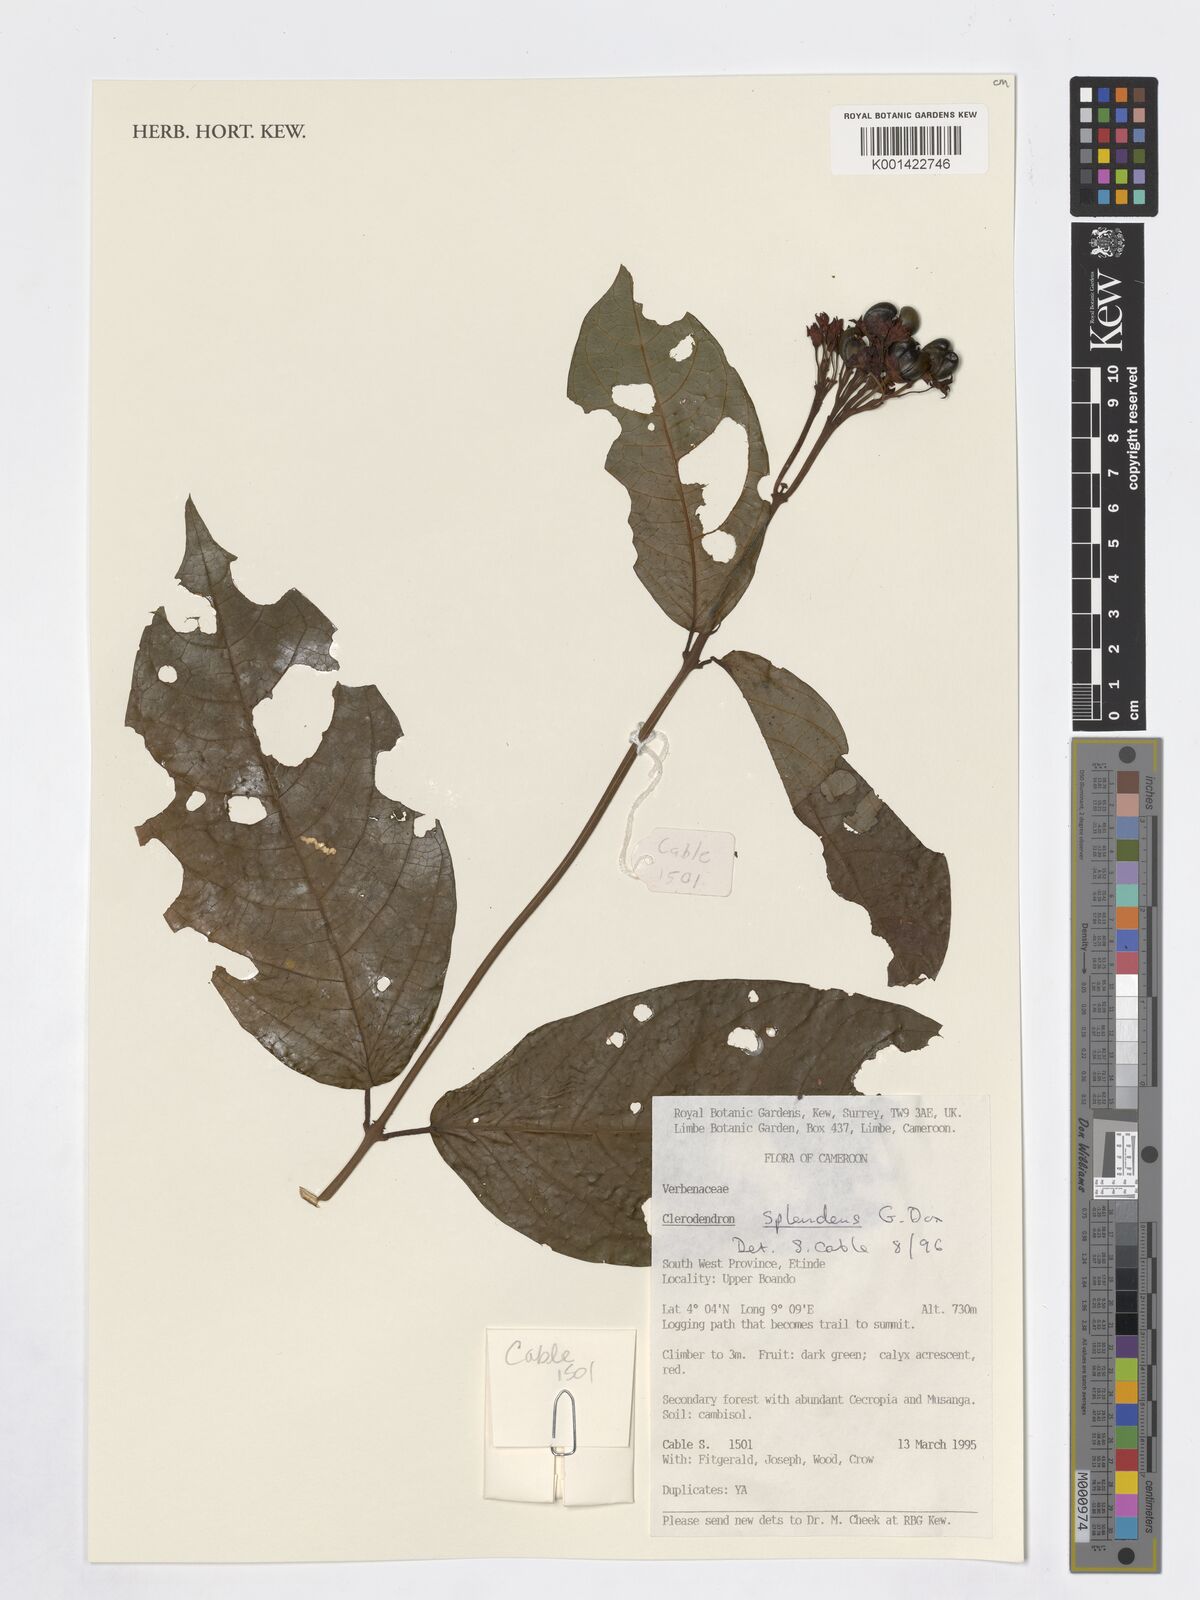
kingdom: Plantae
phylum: Tracheophyta
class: Magnoliopsida
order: Lamiales
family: Verbenaceae
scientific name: Verbenaceae
